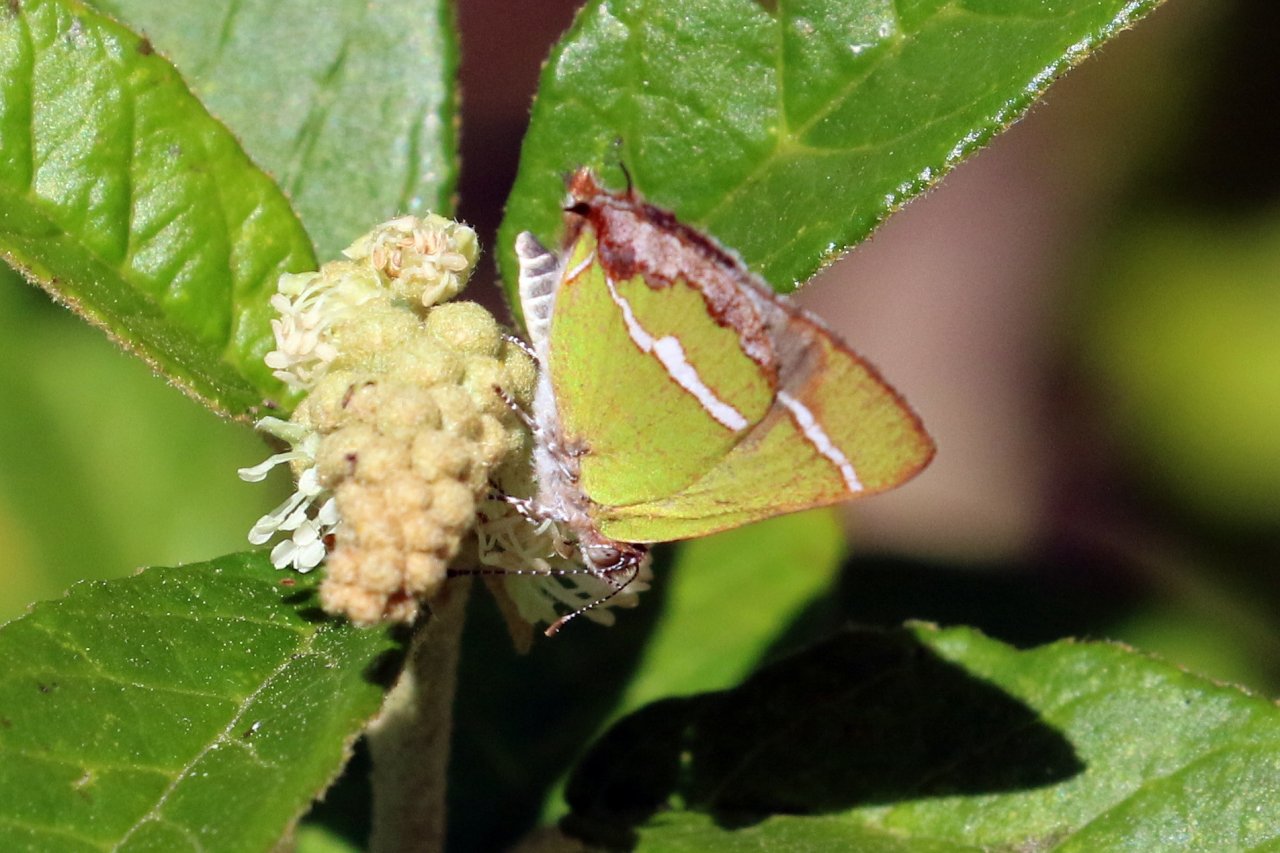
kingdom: Animalia
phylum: Arthropoda
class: Insecta
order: Lepidoptera
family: Lycaenidae
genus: Chlorostrymon
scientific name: Chlorostrymon simaethis
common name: Silver-banded Hairstreak
